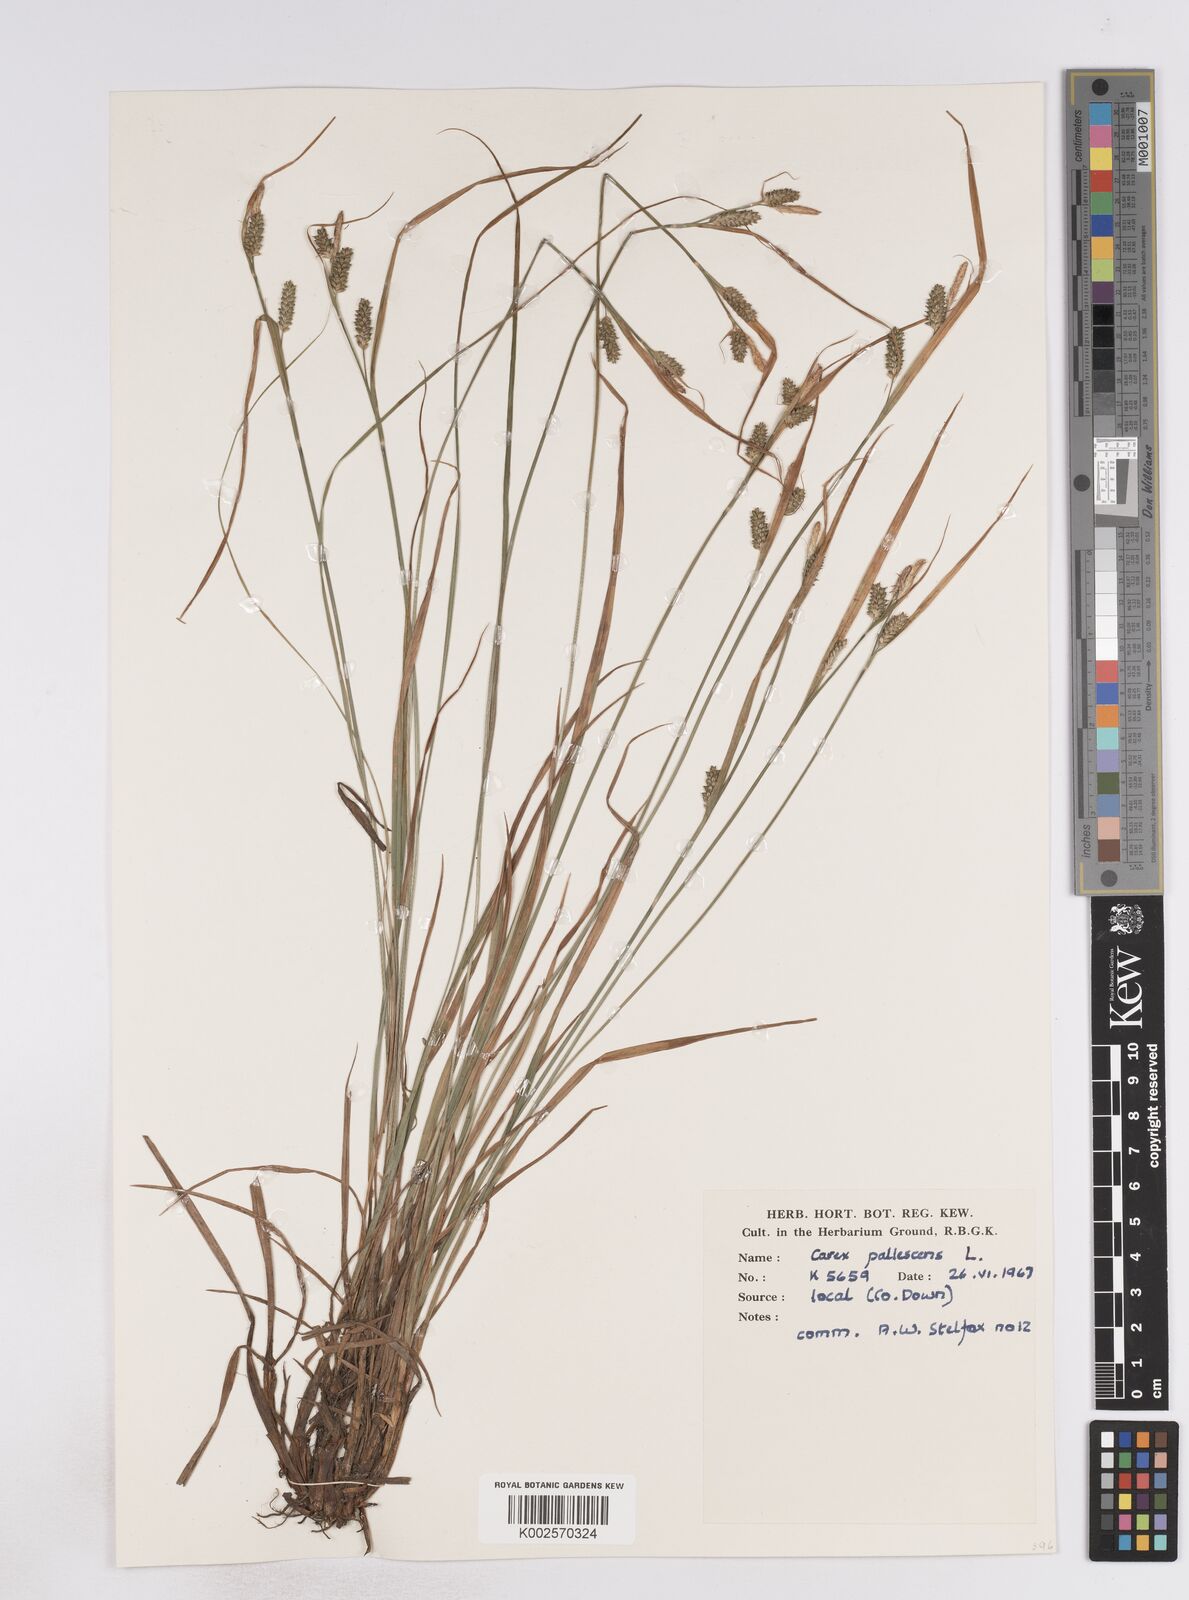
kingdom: Plantae
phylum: Tracheophyta
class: Liliopsida
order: Poales
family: Cyperaceae
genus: Carex
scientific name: Carex pallescens
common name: Pale sedge
